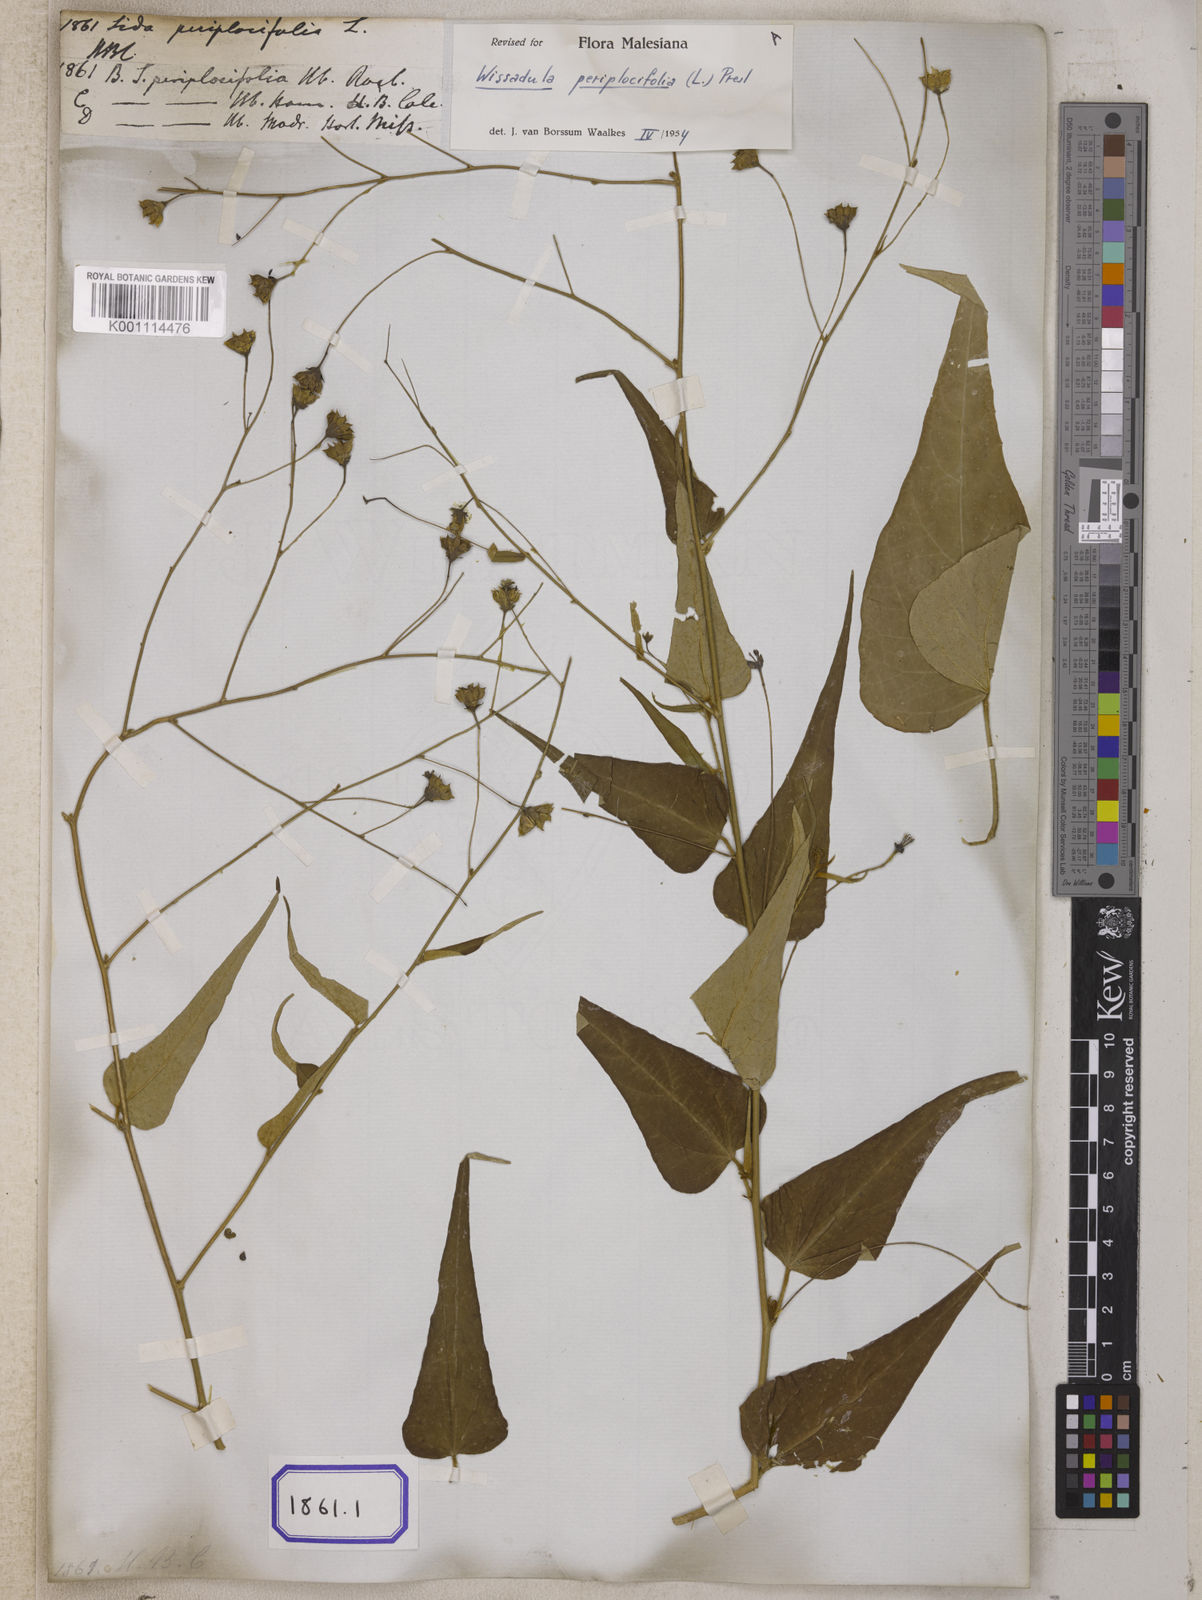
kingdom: Plantae
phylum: Tracheophyta
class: Magnoliopsida
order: Malvales
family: Malvaceae
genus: Wissadula
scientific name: Wissadula periplocifolia
